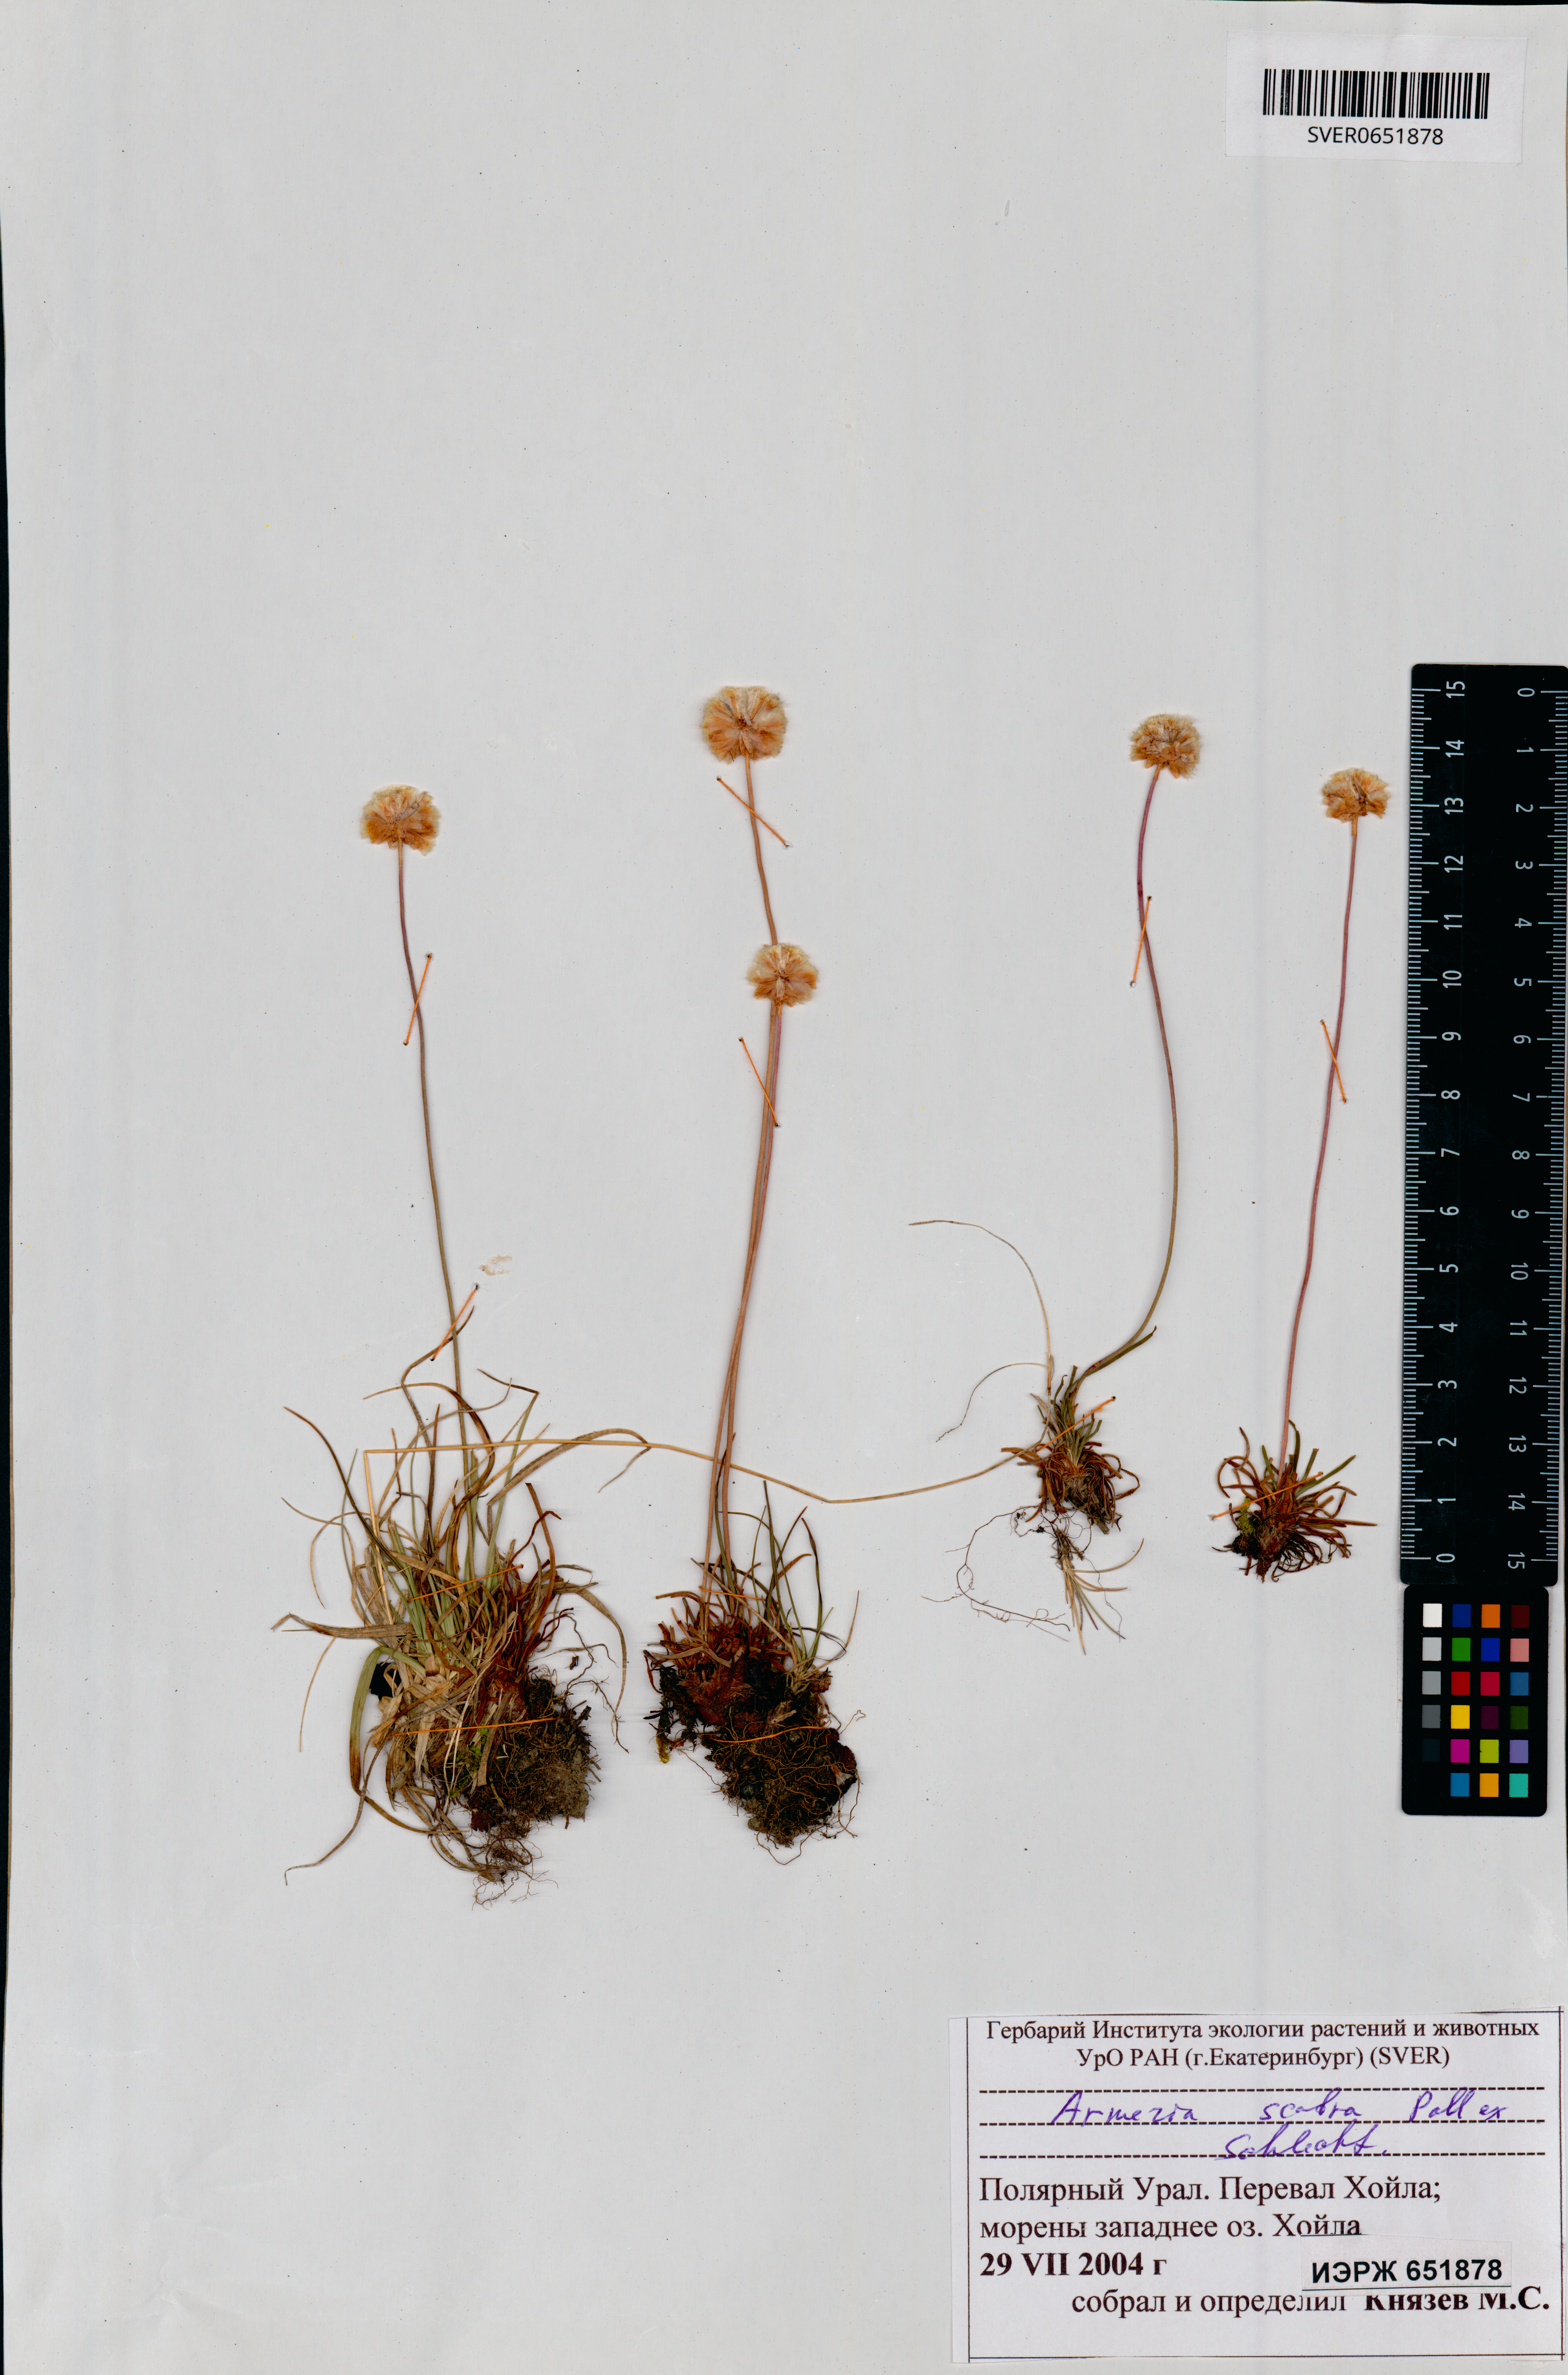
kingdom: Plantae
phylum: Tracheophyta
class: Magnoliopsida
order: Caryophyllales
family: Plumbaginaceae
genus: Armeria
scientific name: Armeria maritima
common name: Thrift
